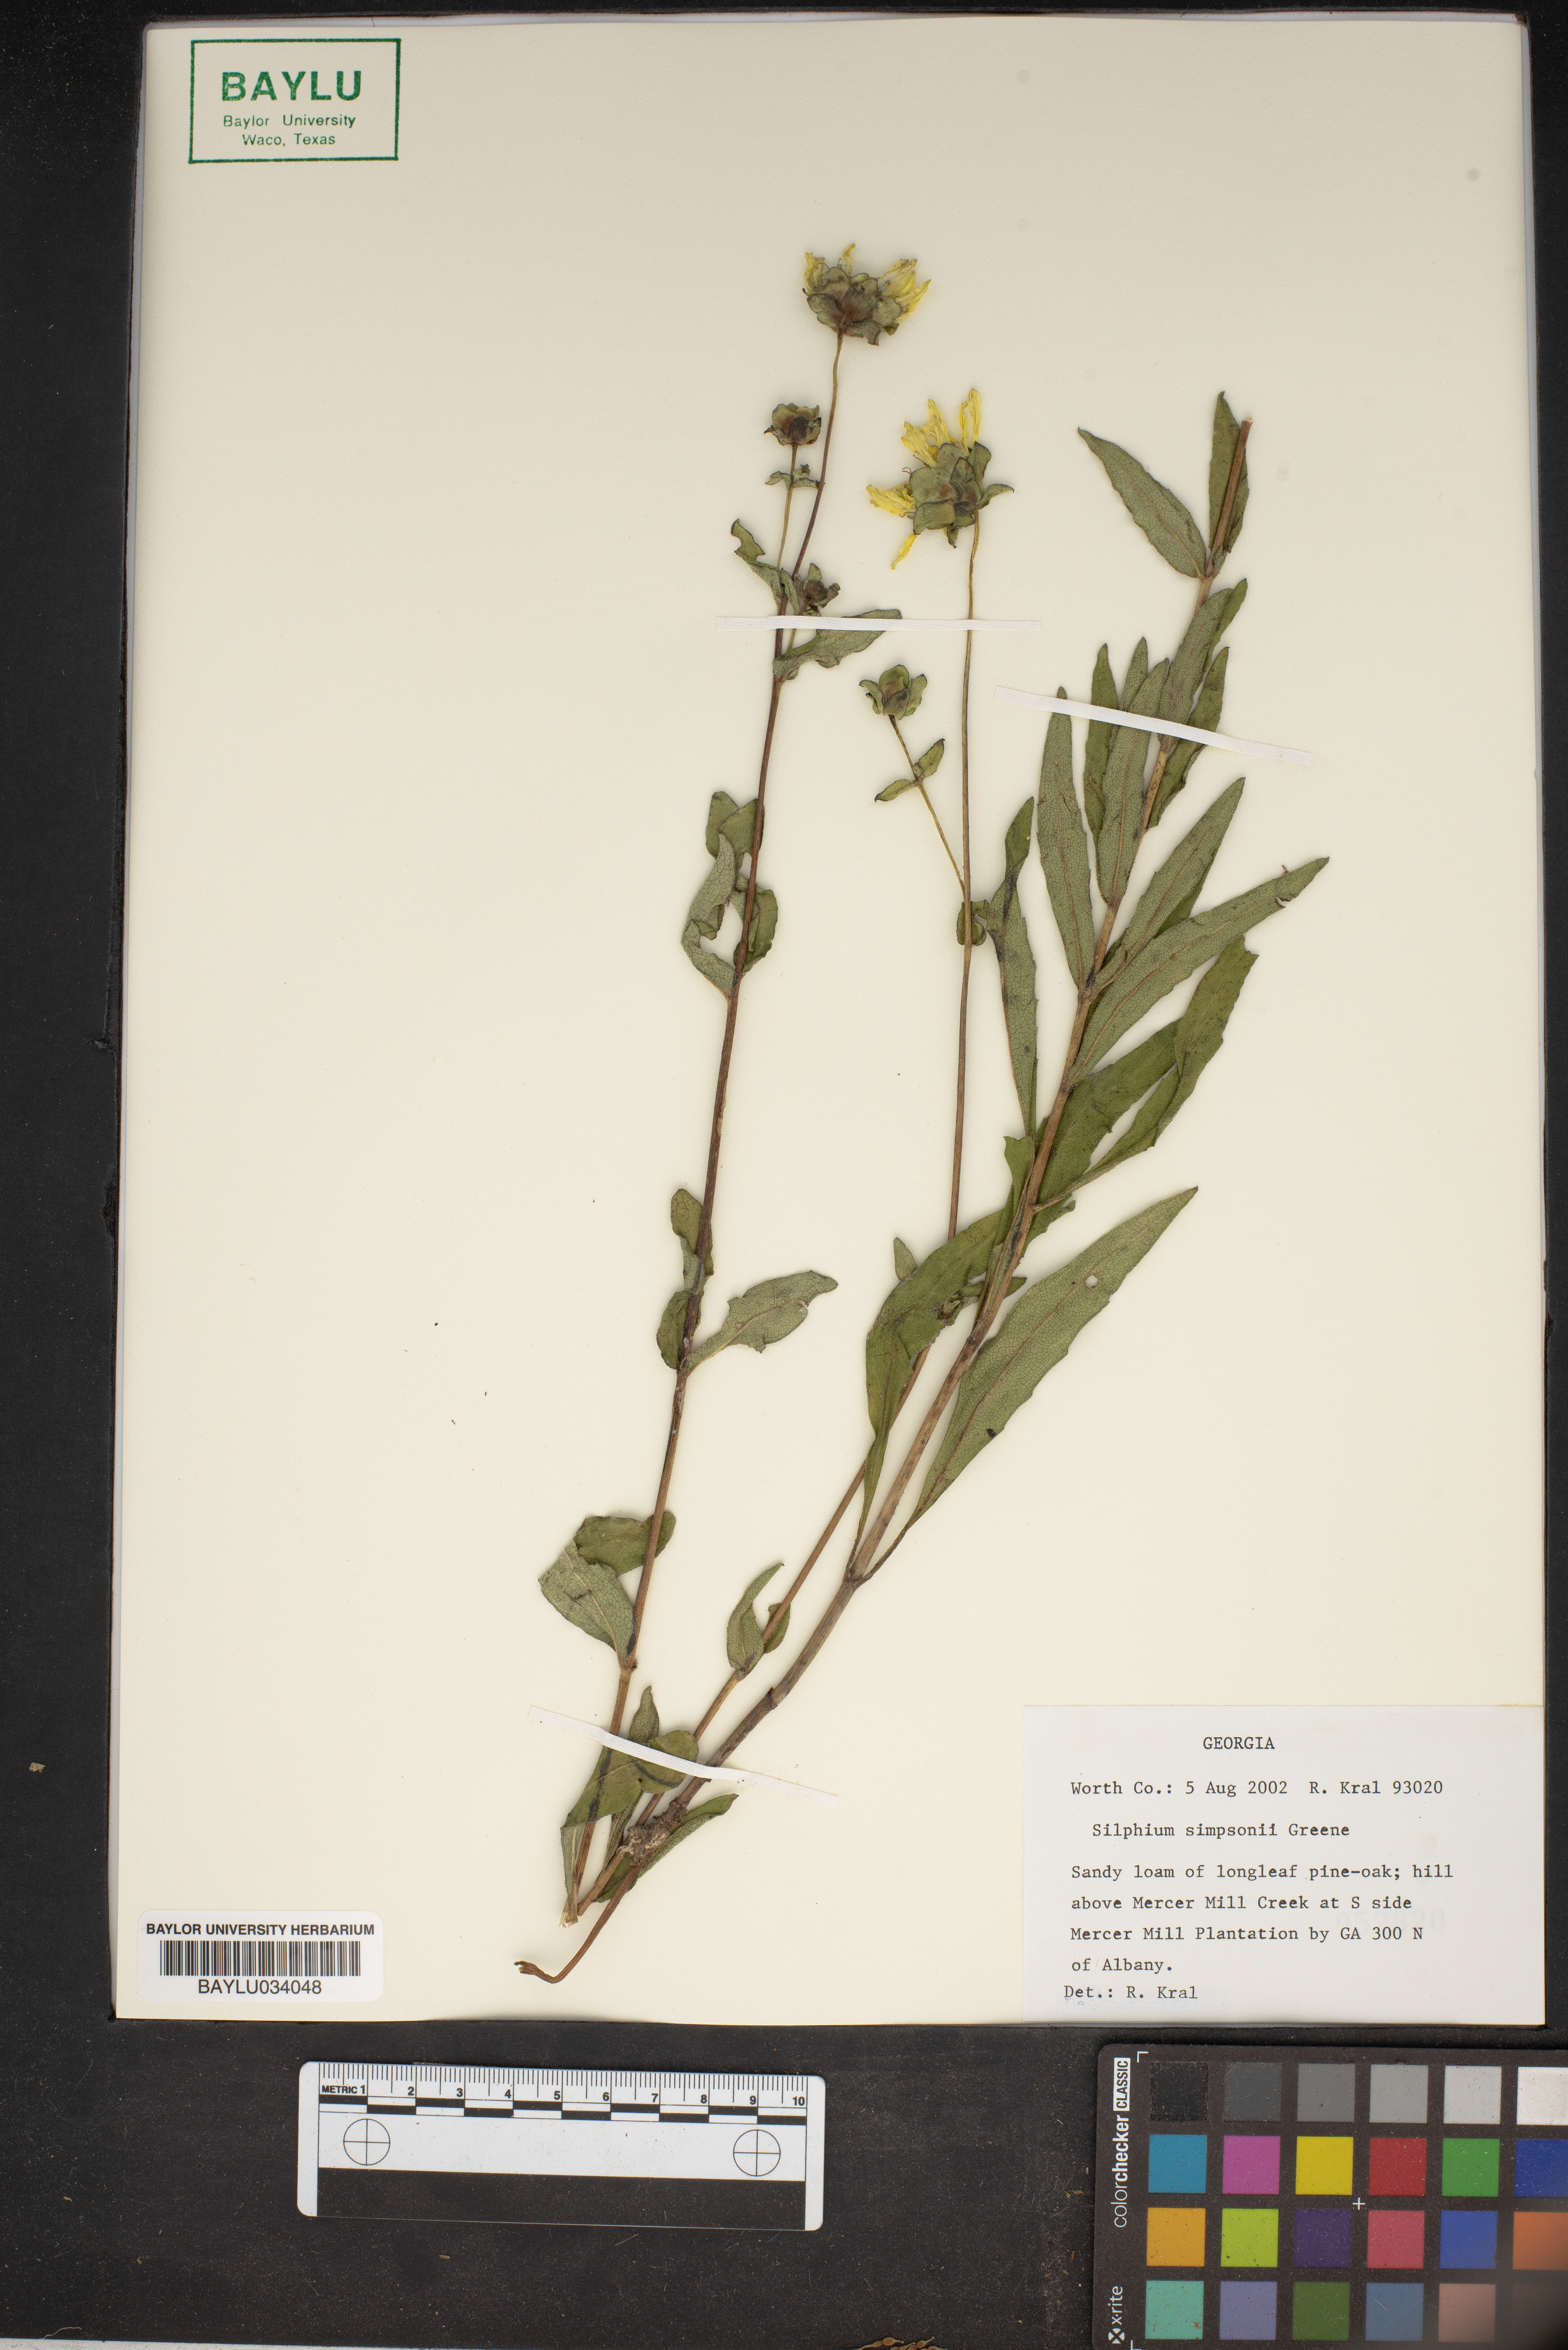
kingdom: Plantae
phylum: Tracheophyta
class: Magnoliopsida
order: Asterales
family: Asteraceae
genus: Silphium
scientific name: Silphium asteriscus
